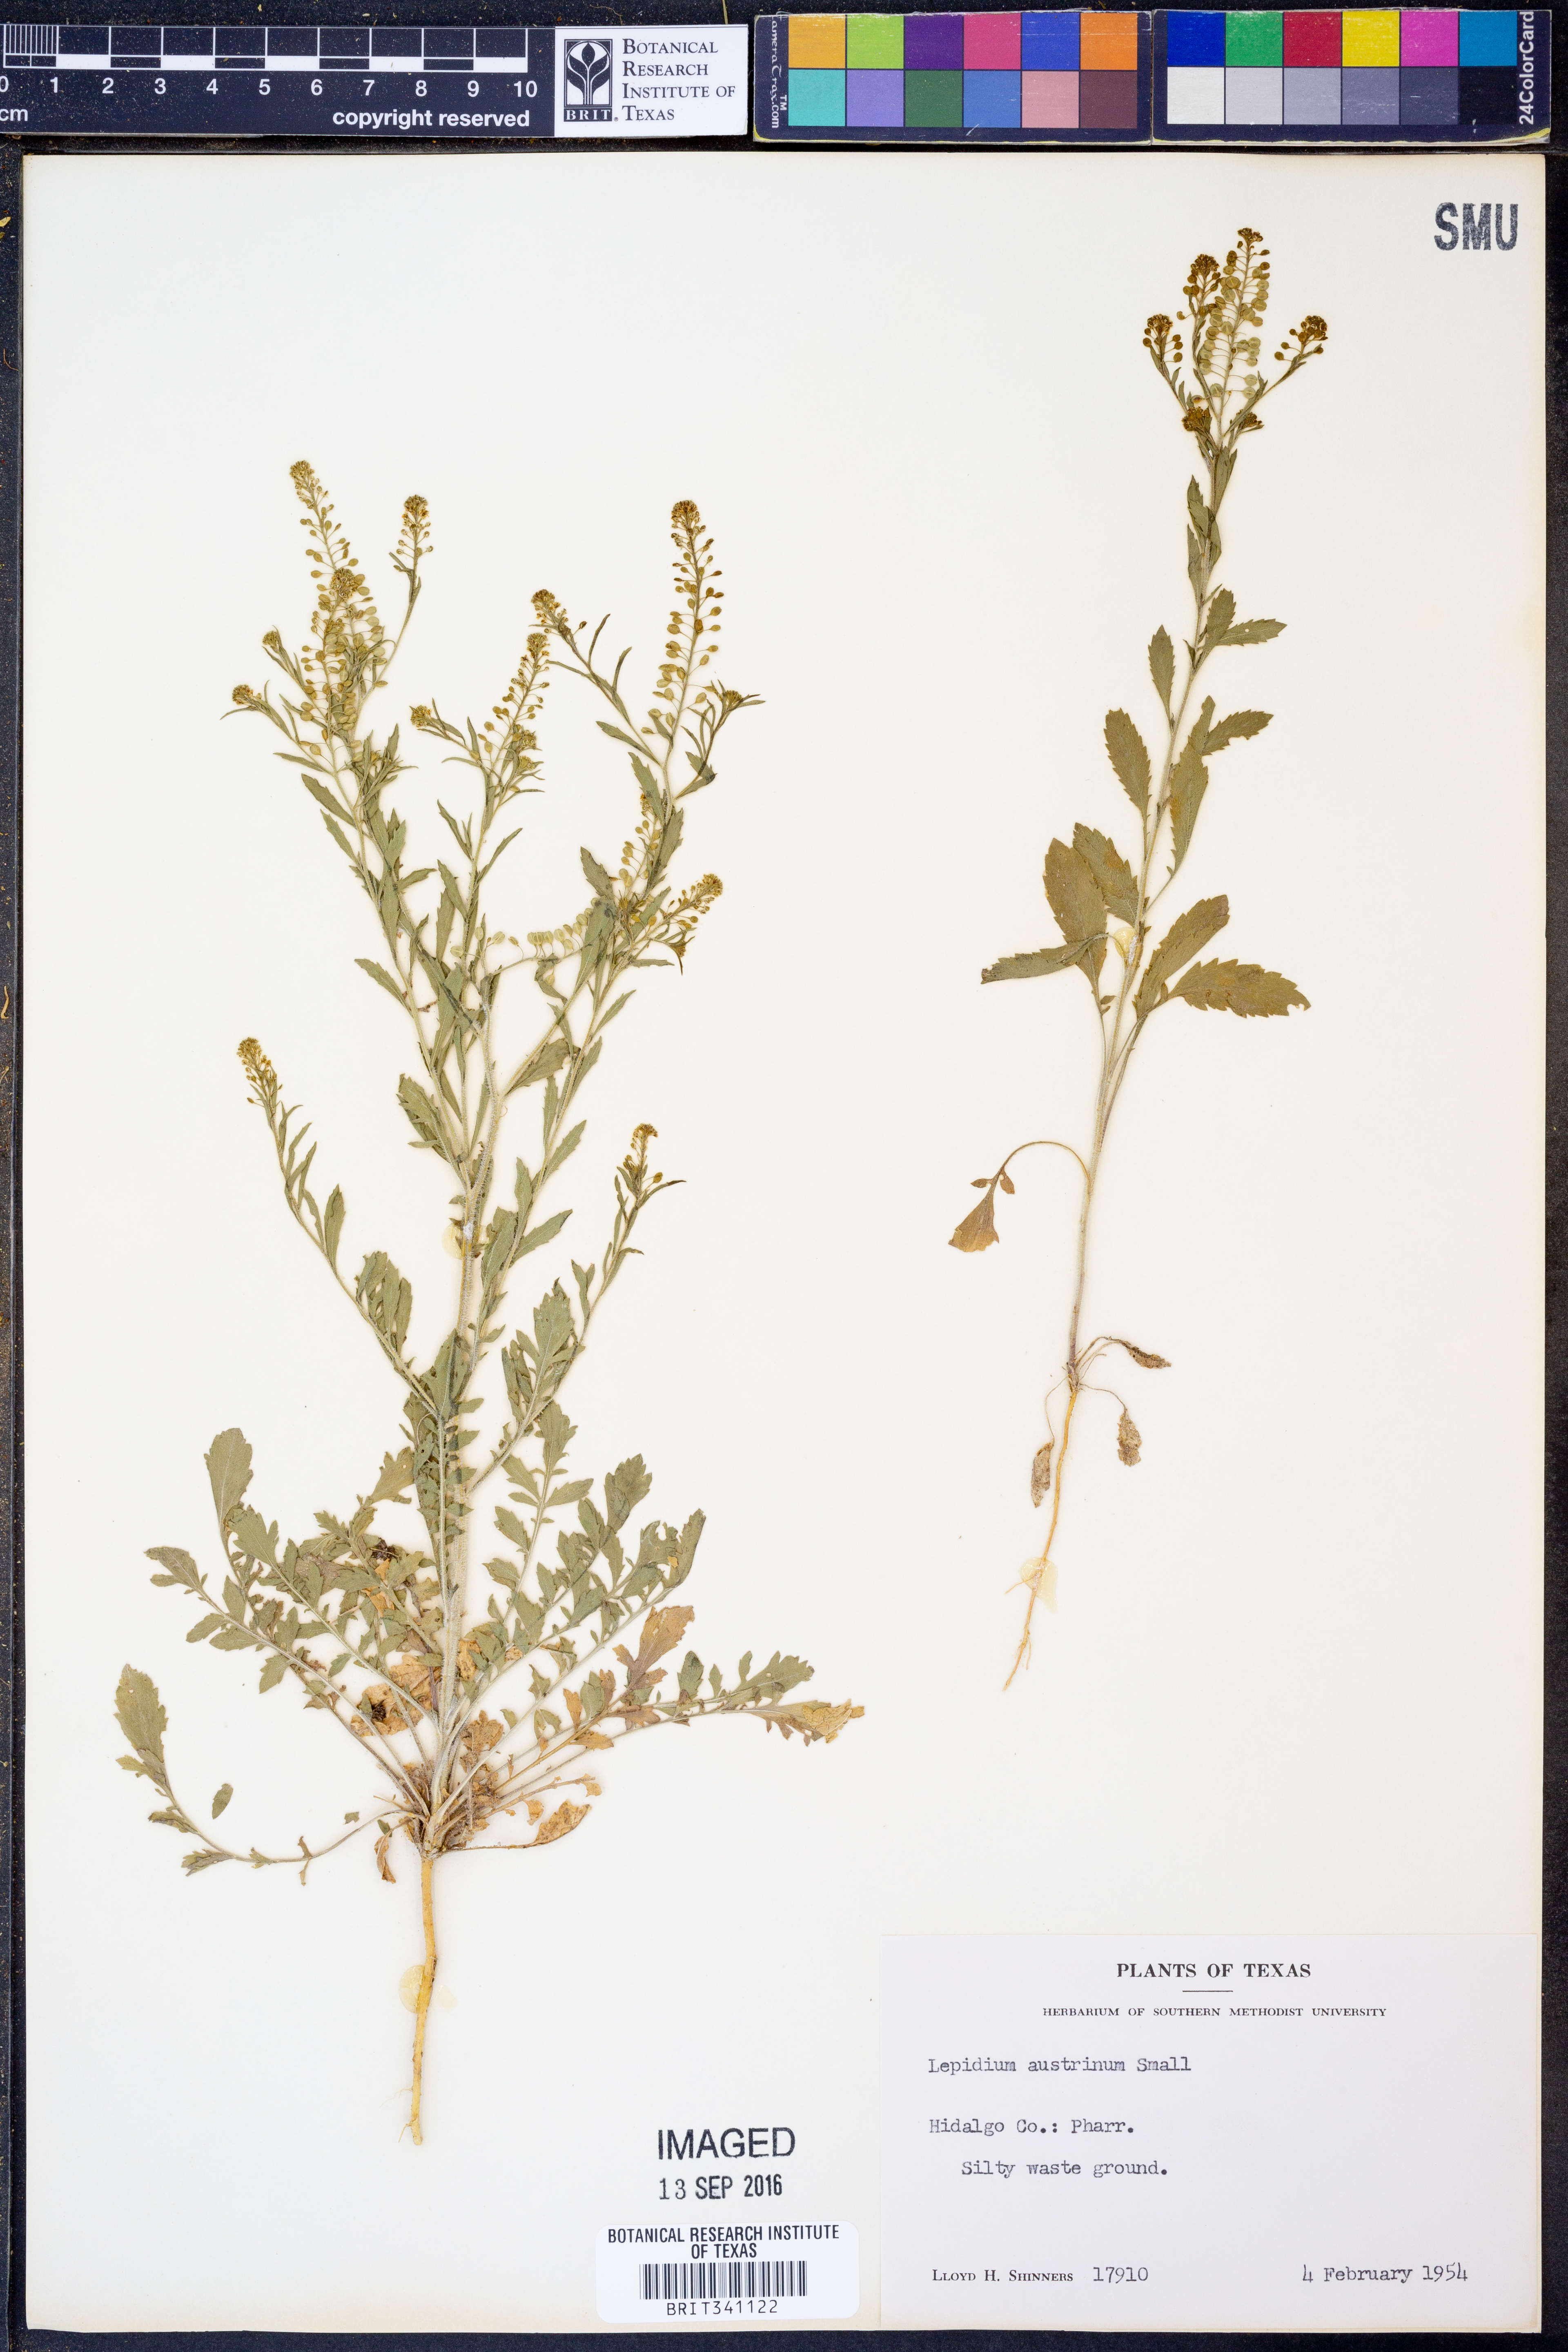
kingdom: Plantae
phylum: Tracheophyta
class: Magnoliopsida
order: Brassicales
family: Brassicaceae
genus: Lepidium
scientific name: Lepidium austrinum
